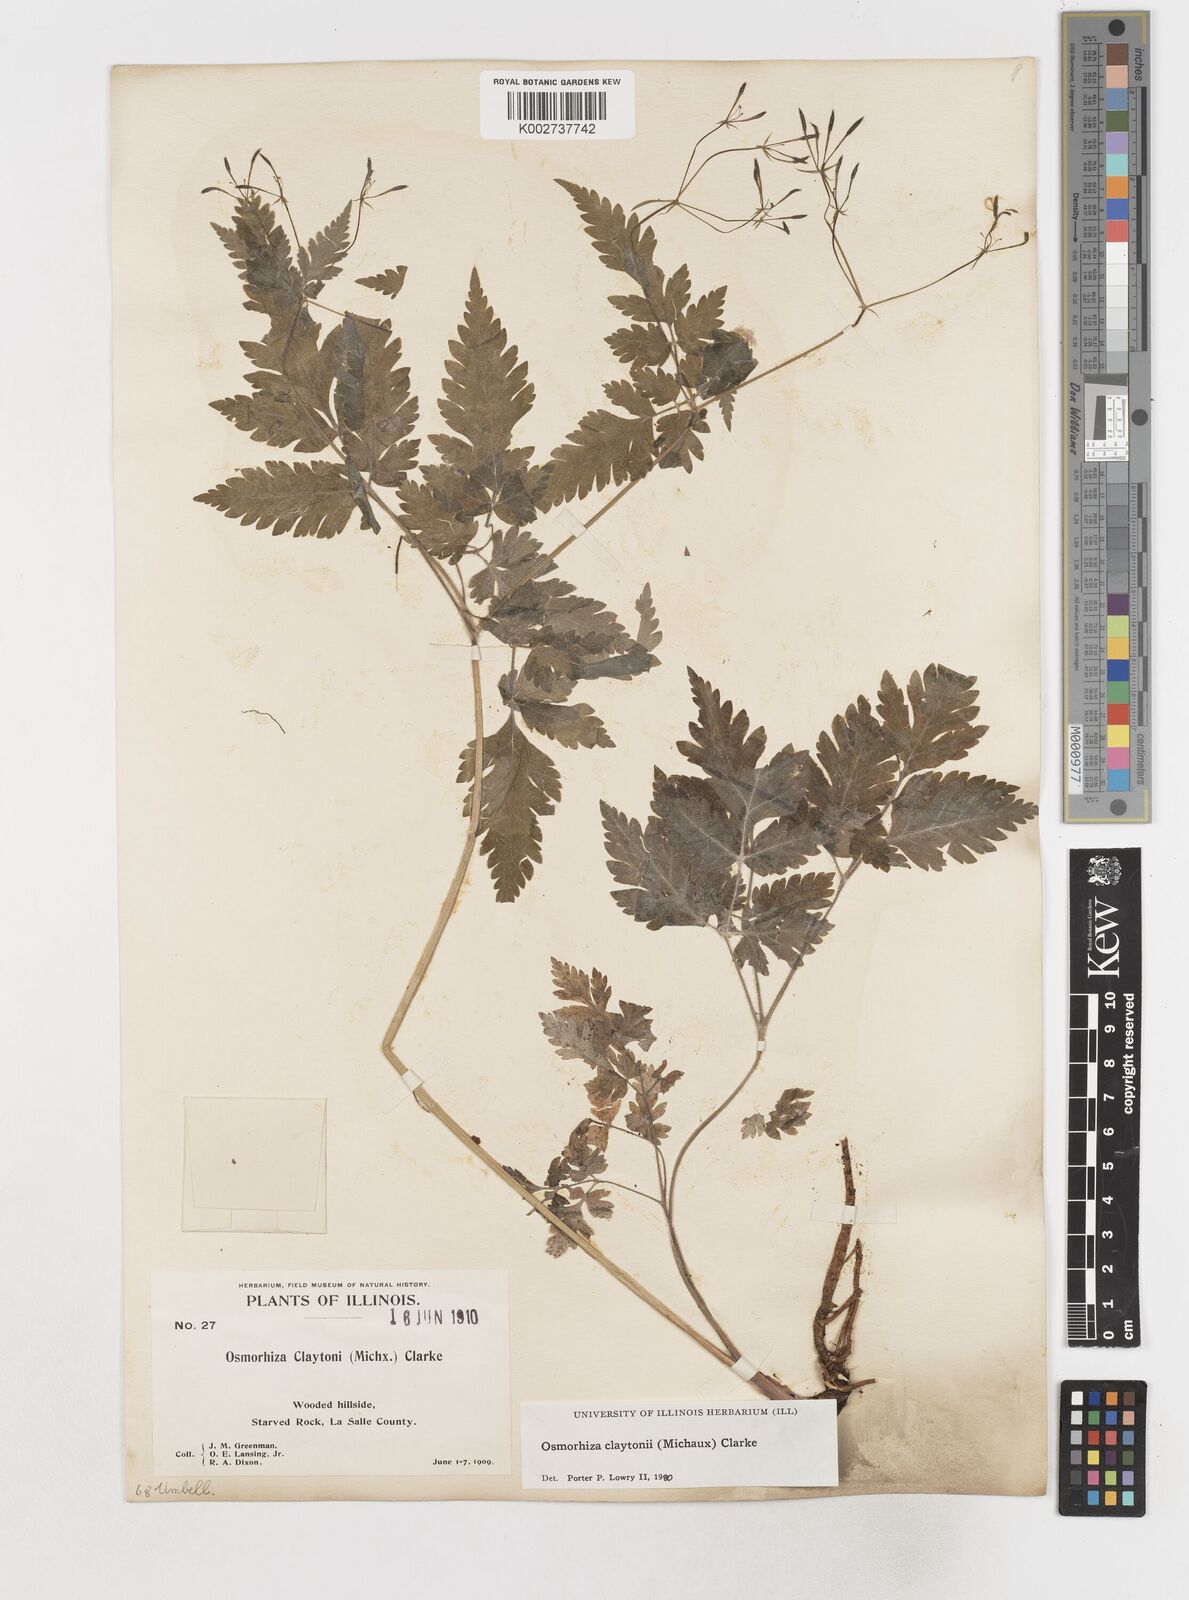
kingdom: Plantae
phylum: Tracheophyta
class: Magnoliopsida
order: Apiales
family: Apiaceae
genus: Osmorhiza
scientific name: Osmorhiza claytonii
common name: Hairy sweet cicely
